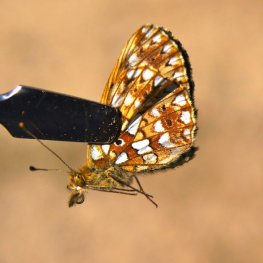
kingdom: Animalia
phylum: Arthropoda
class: Insecta
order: Lepidoptera
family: Nymphalidae
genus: Boloria
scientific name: Boloria selene
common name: Silver-bordered Fritillary
